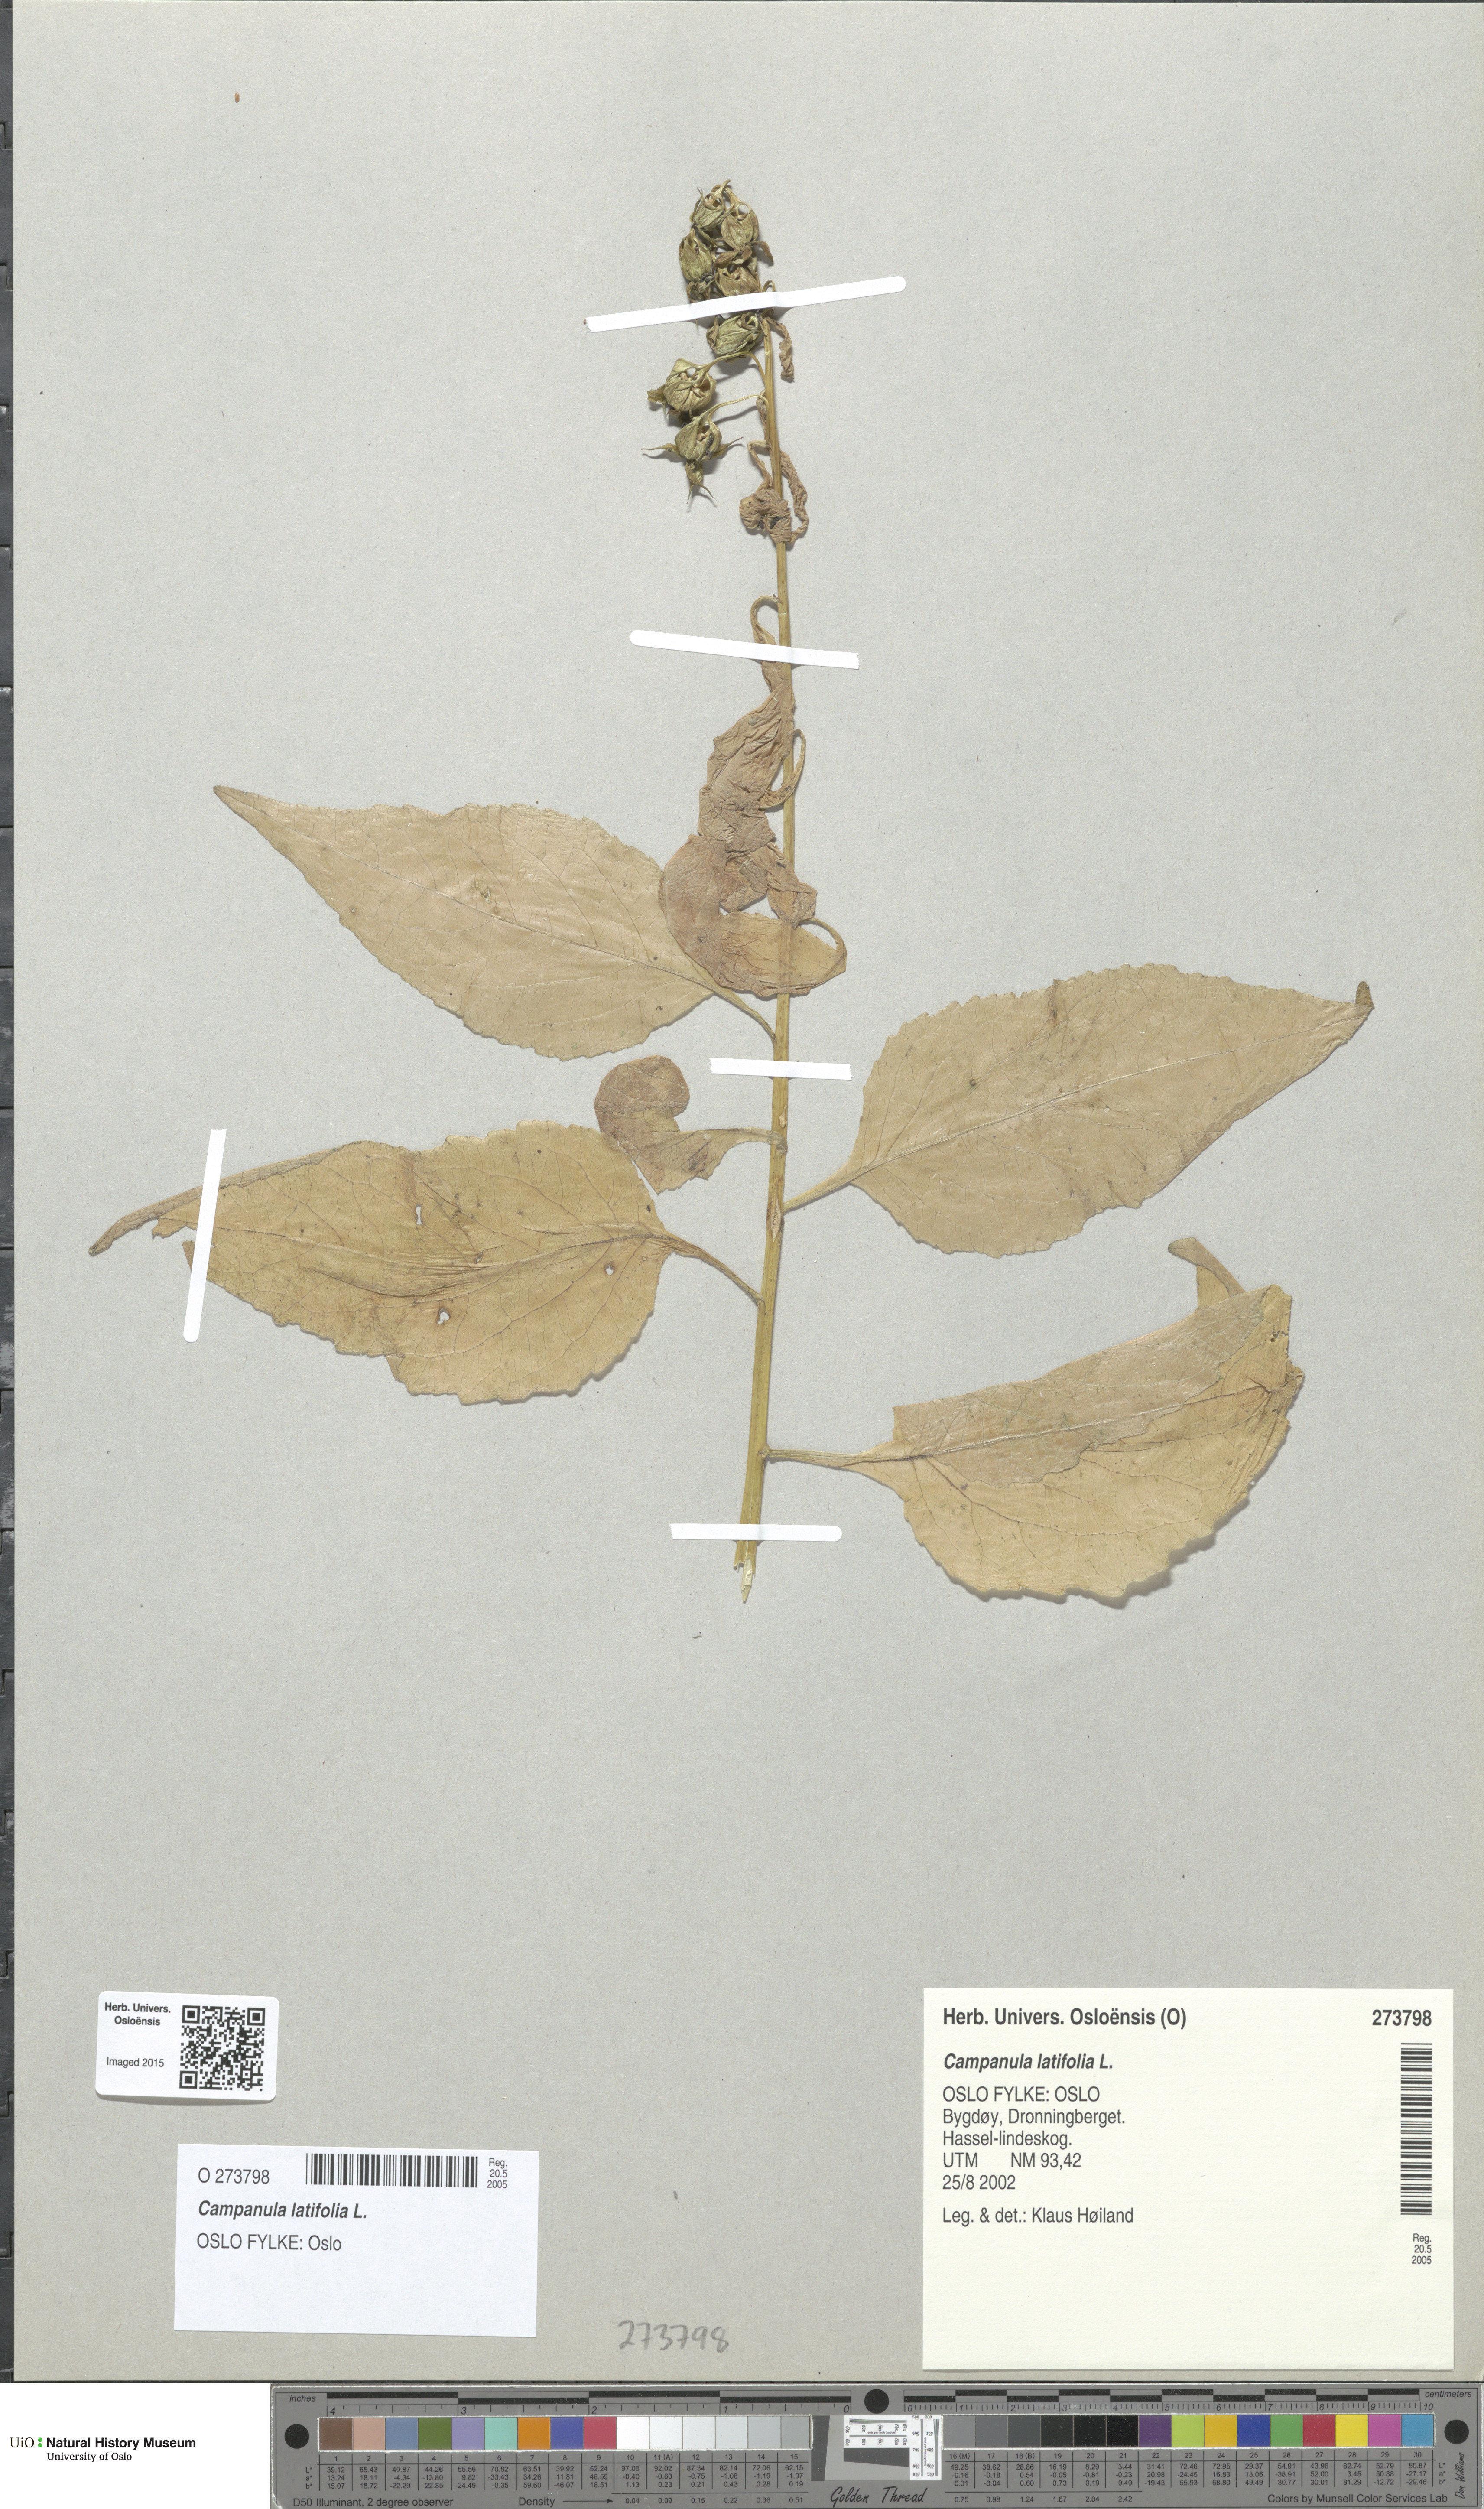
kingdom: Plantae
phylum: Tracheophyta
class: Magnoliopsida
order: Asterales
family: Campanulaceae
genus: Campanula
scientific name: Campanula latifolia
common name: Giant bellflower
